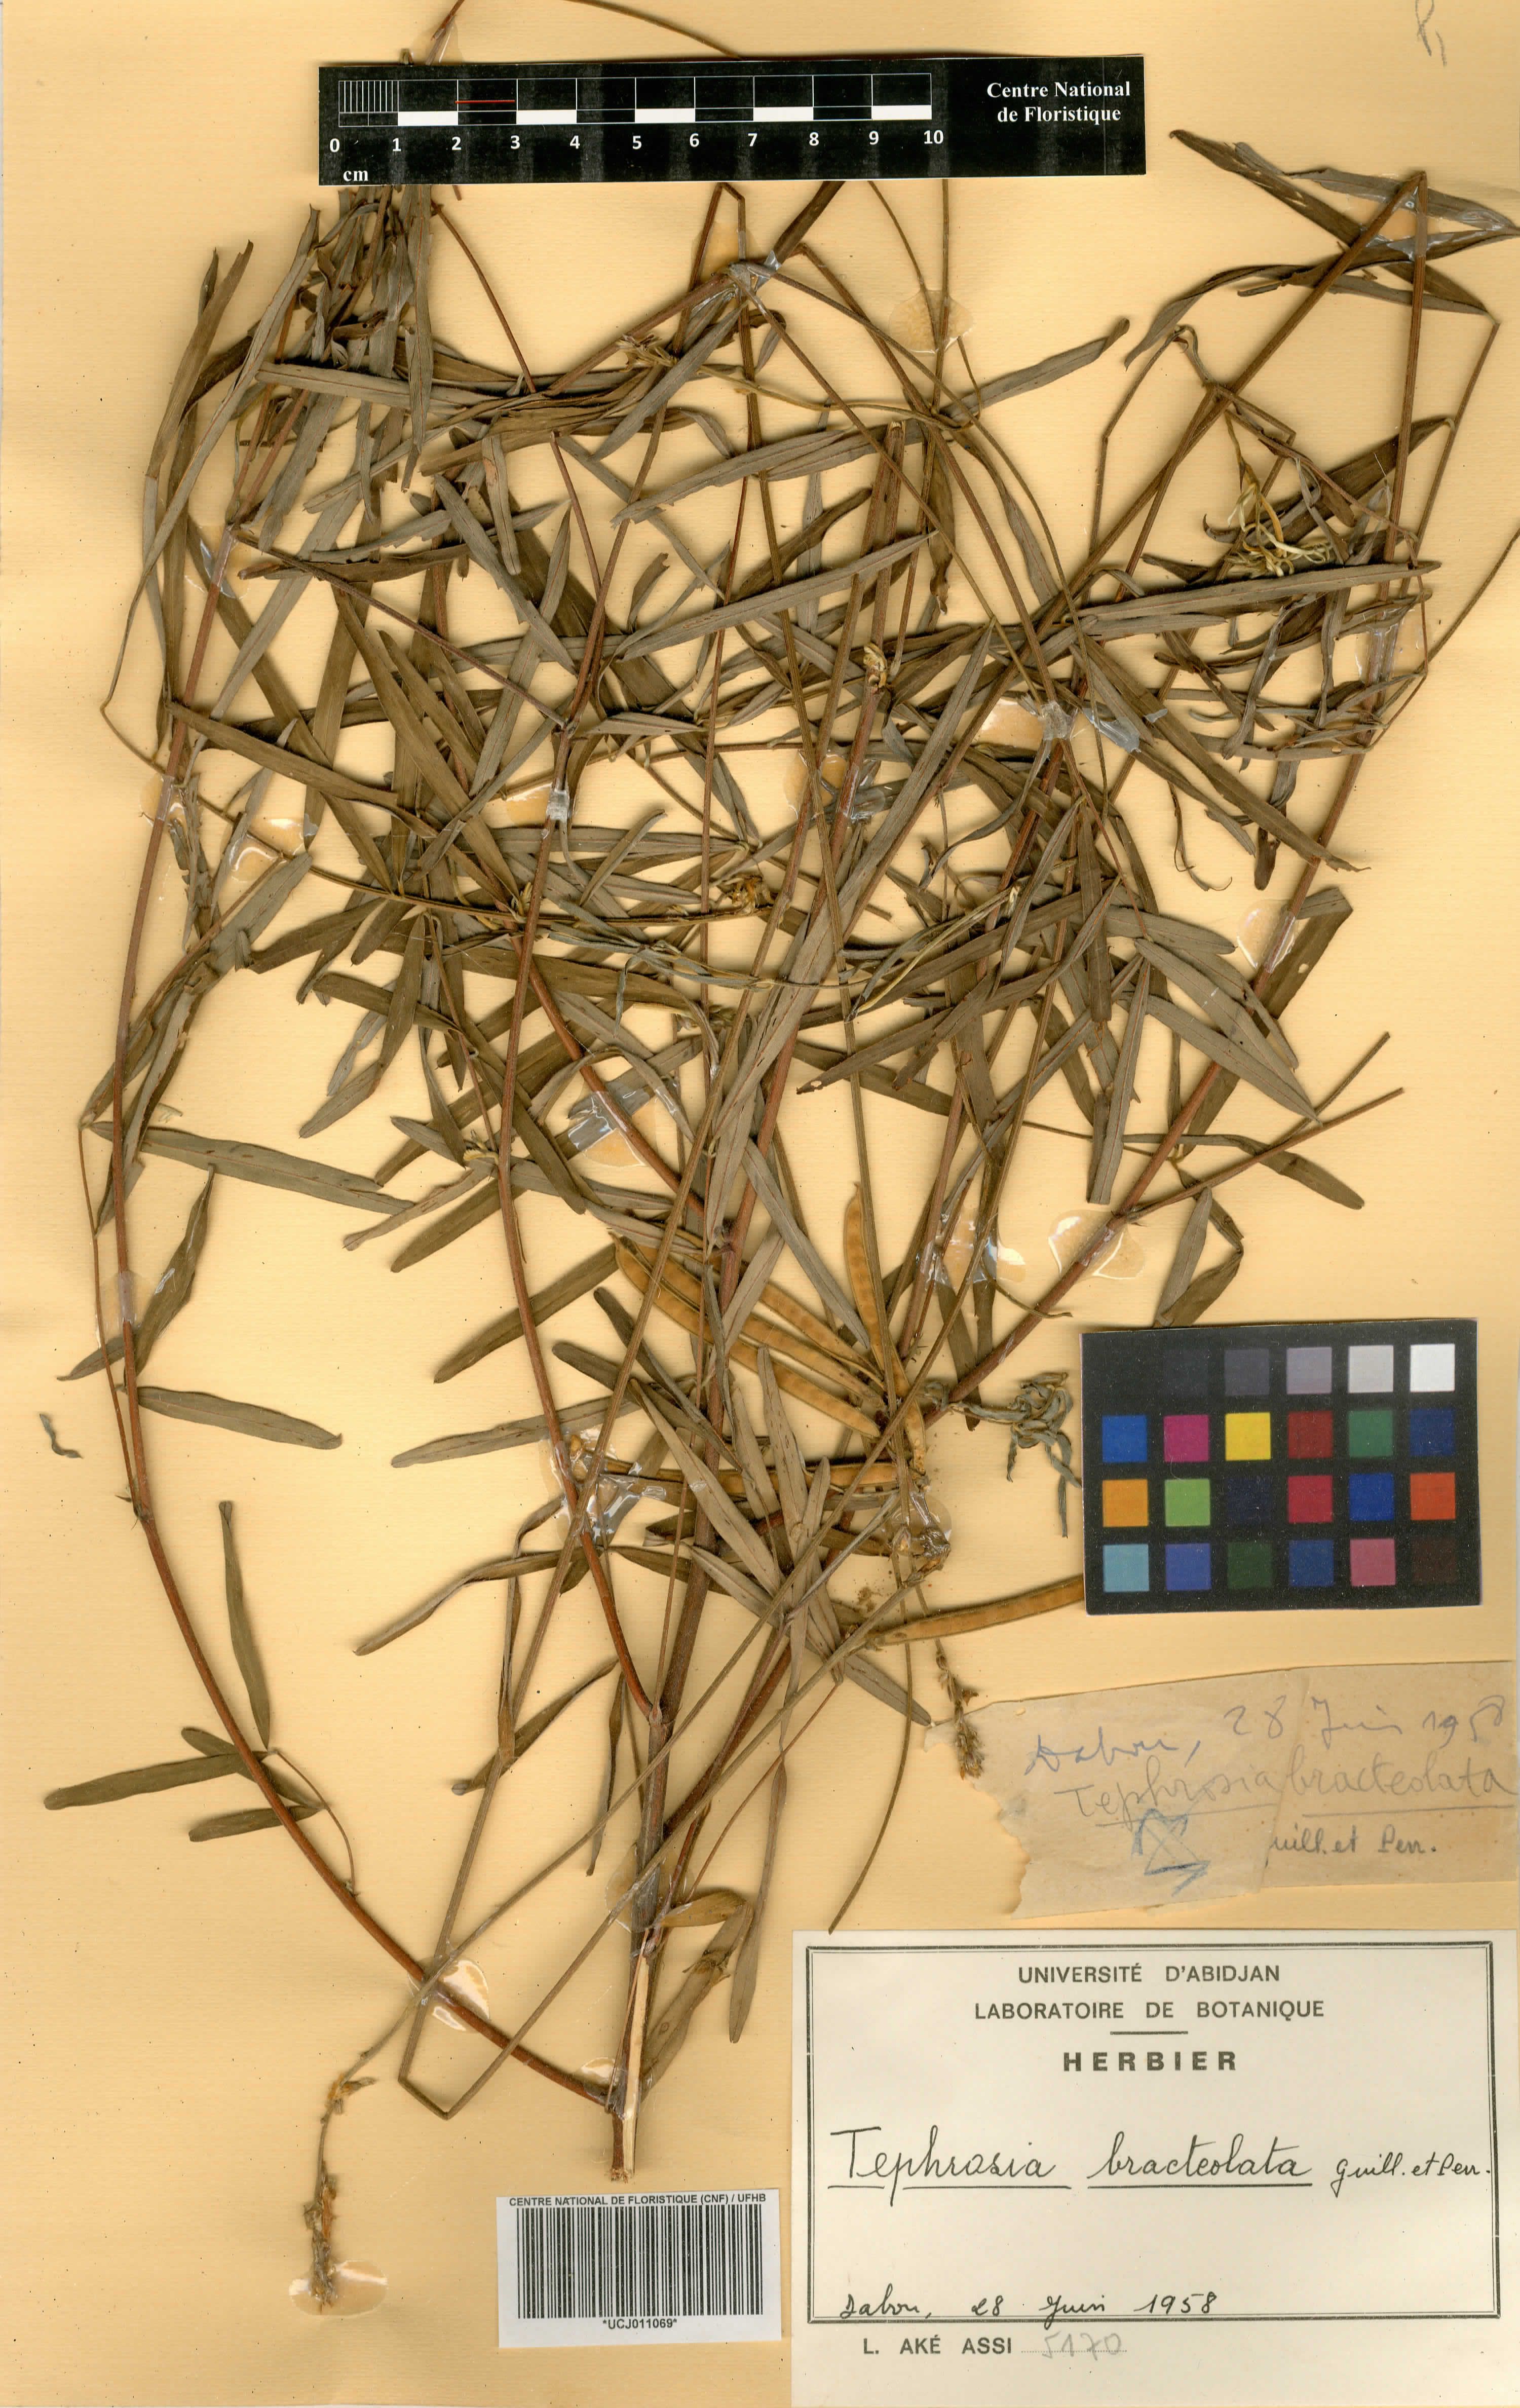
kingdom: Plantae
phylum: Tracheophyta
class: Magnoliopsida
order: Fabales
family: Fabaceae
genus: Tephrosia
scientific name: Tephrosia bracteolata
